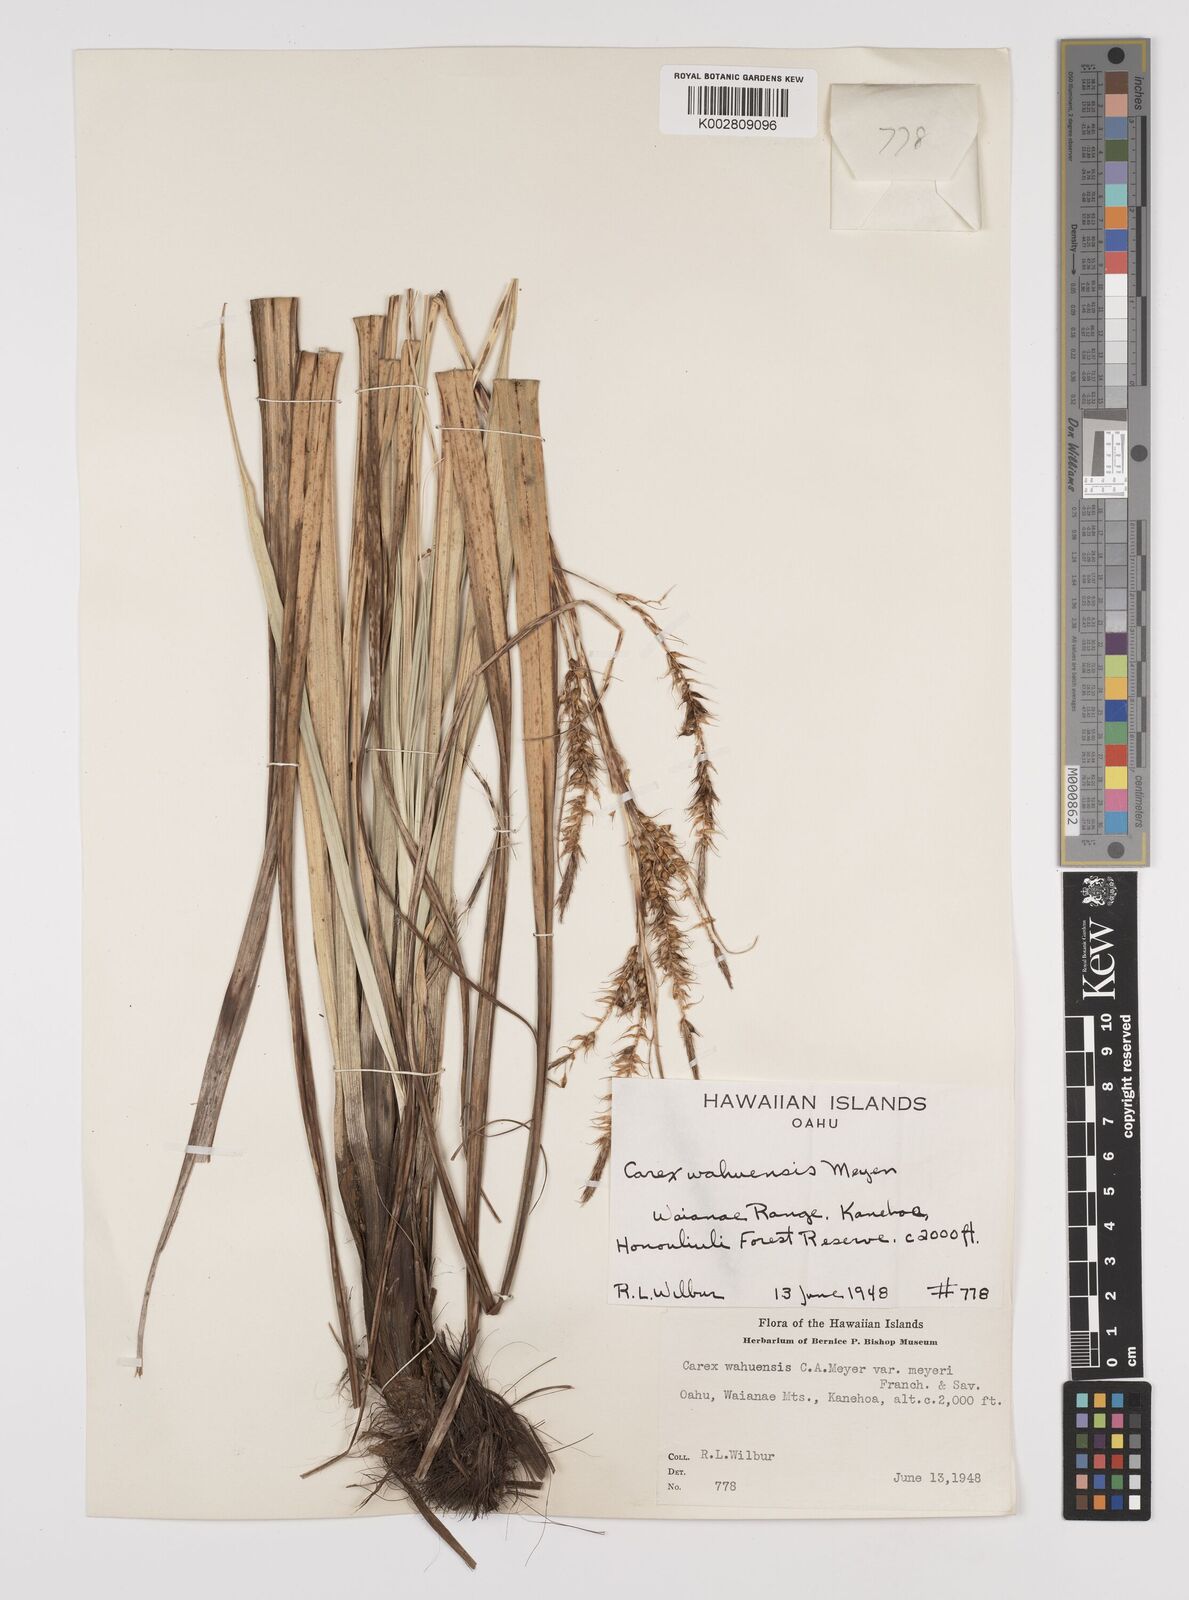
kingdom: Plantae
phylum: Tracheophyta
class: Liliopsida
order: Poales
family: Cyperaceae
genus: Carex
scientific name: Carex wahuensis
